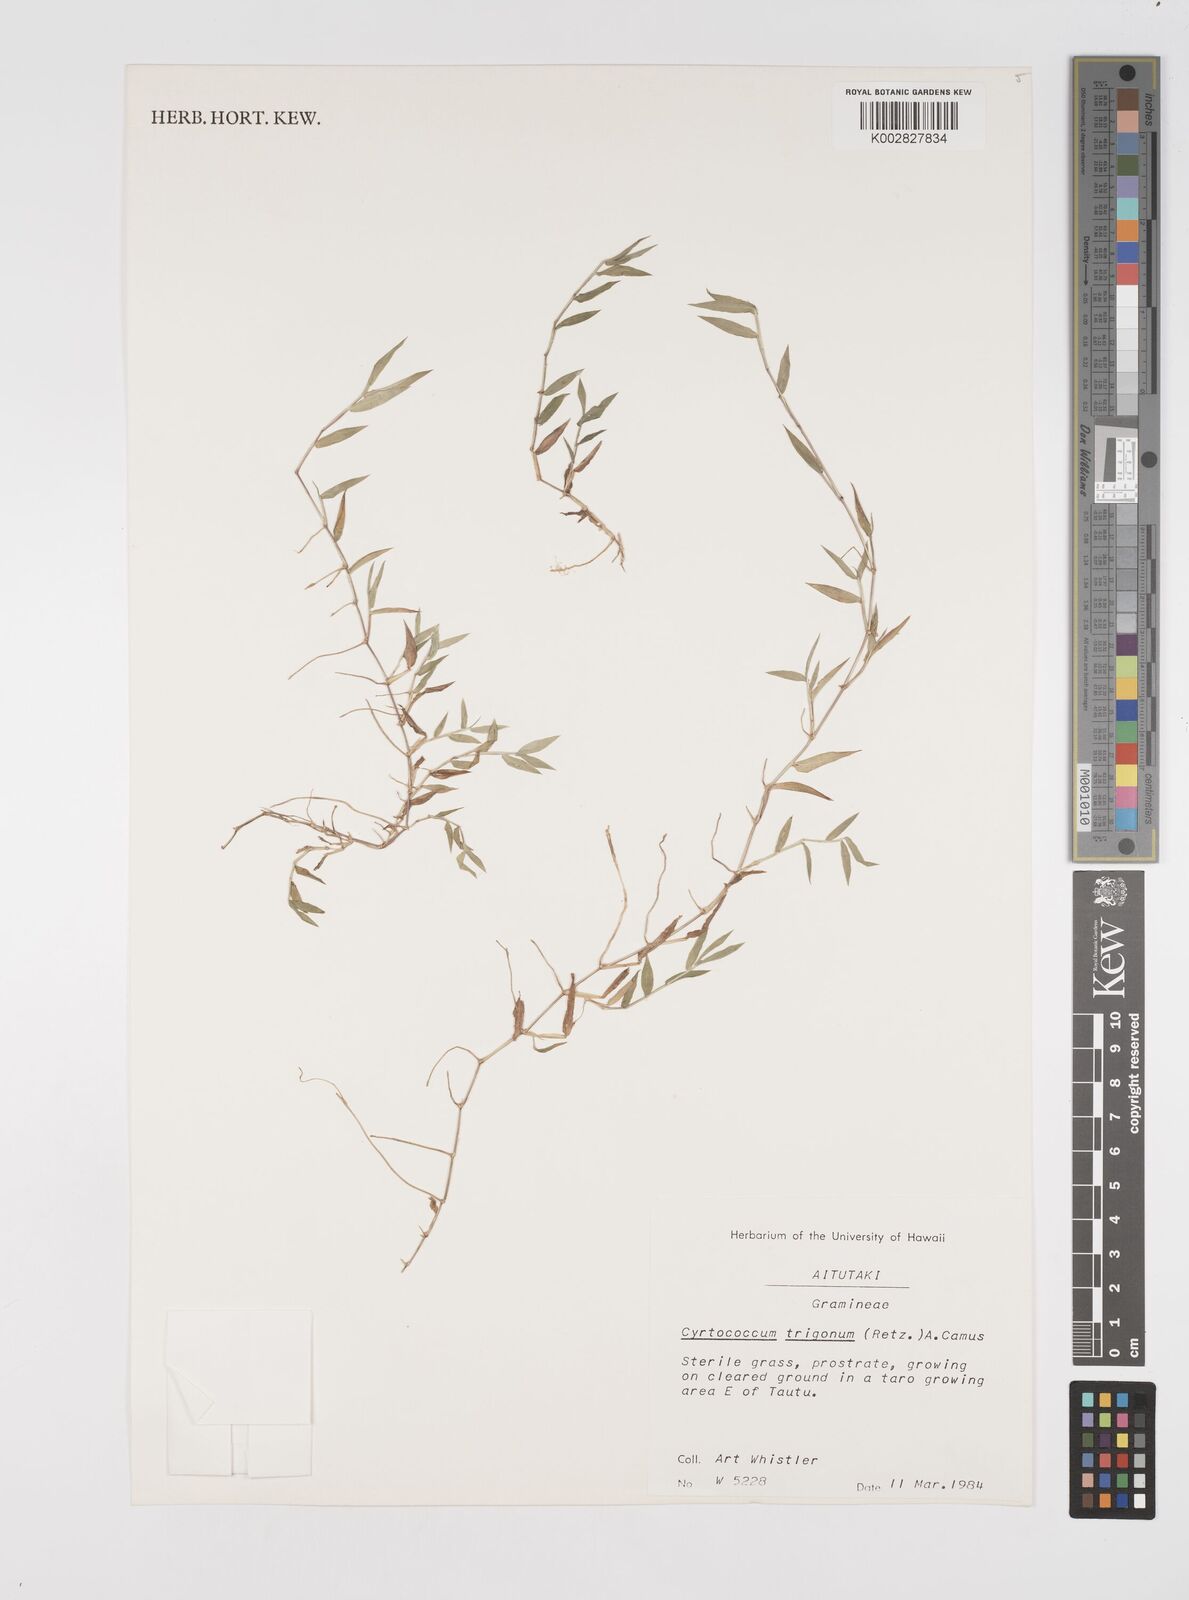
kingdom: Plantae
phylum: Tracheophyta
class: Liliopsida
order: Poales
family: Poaceae
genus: Cyrtococcum
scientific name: Cyrtococcum trigonum
